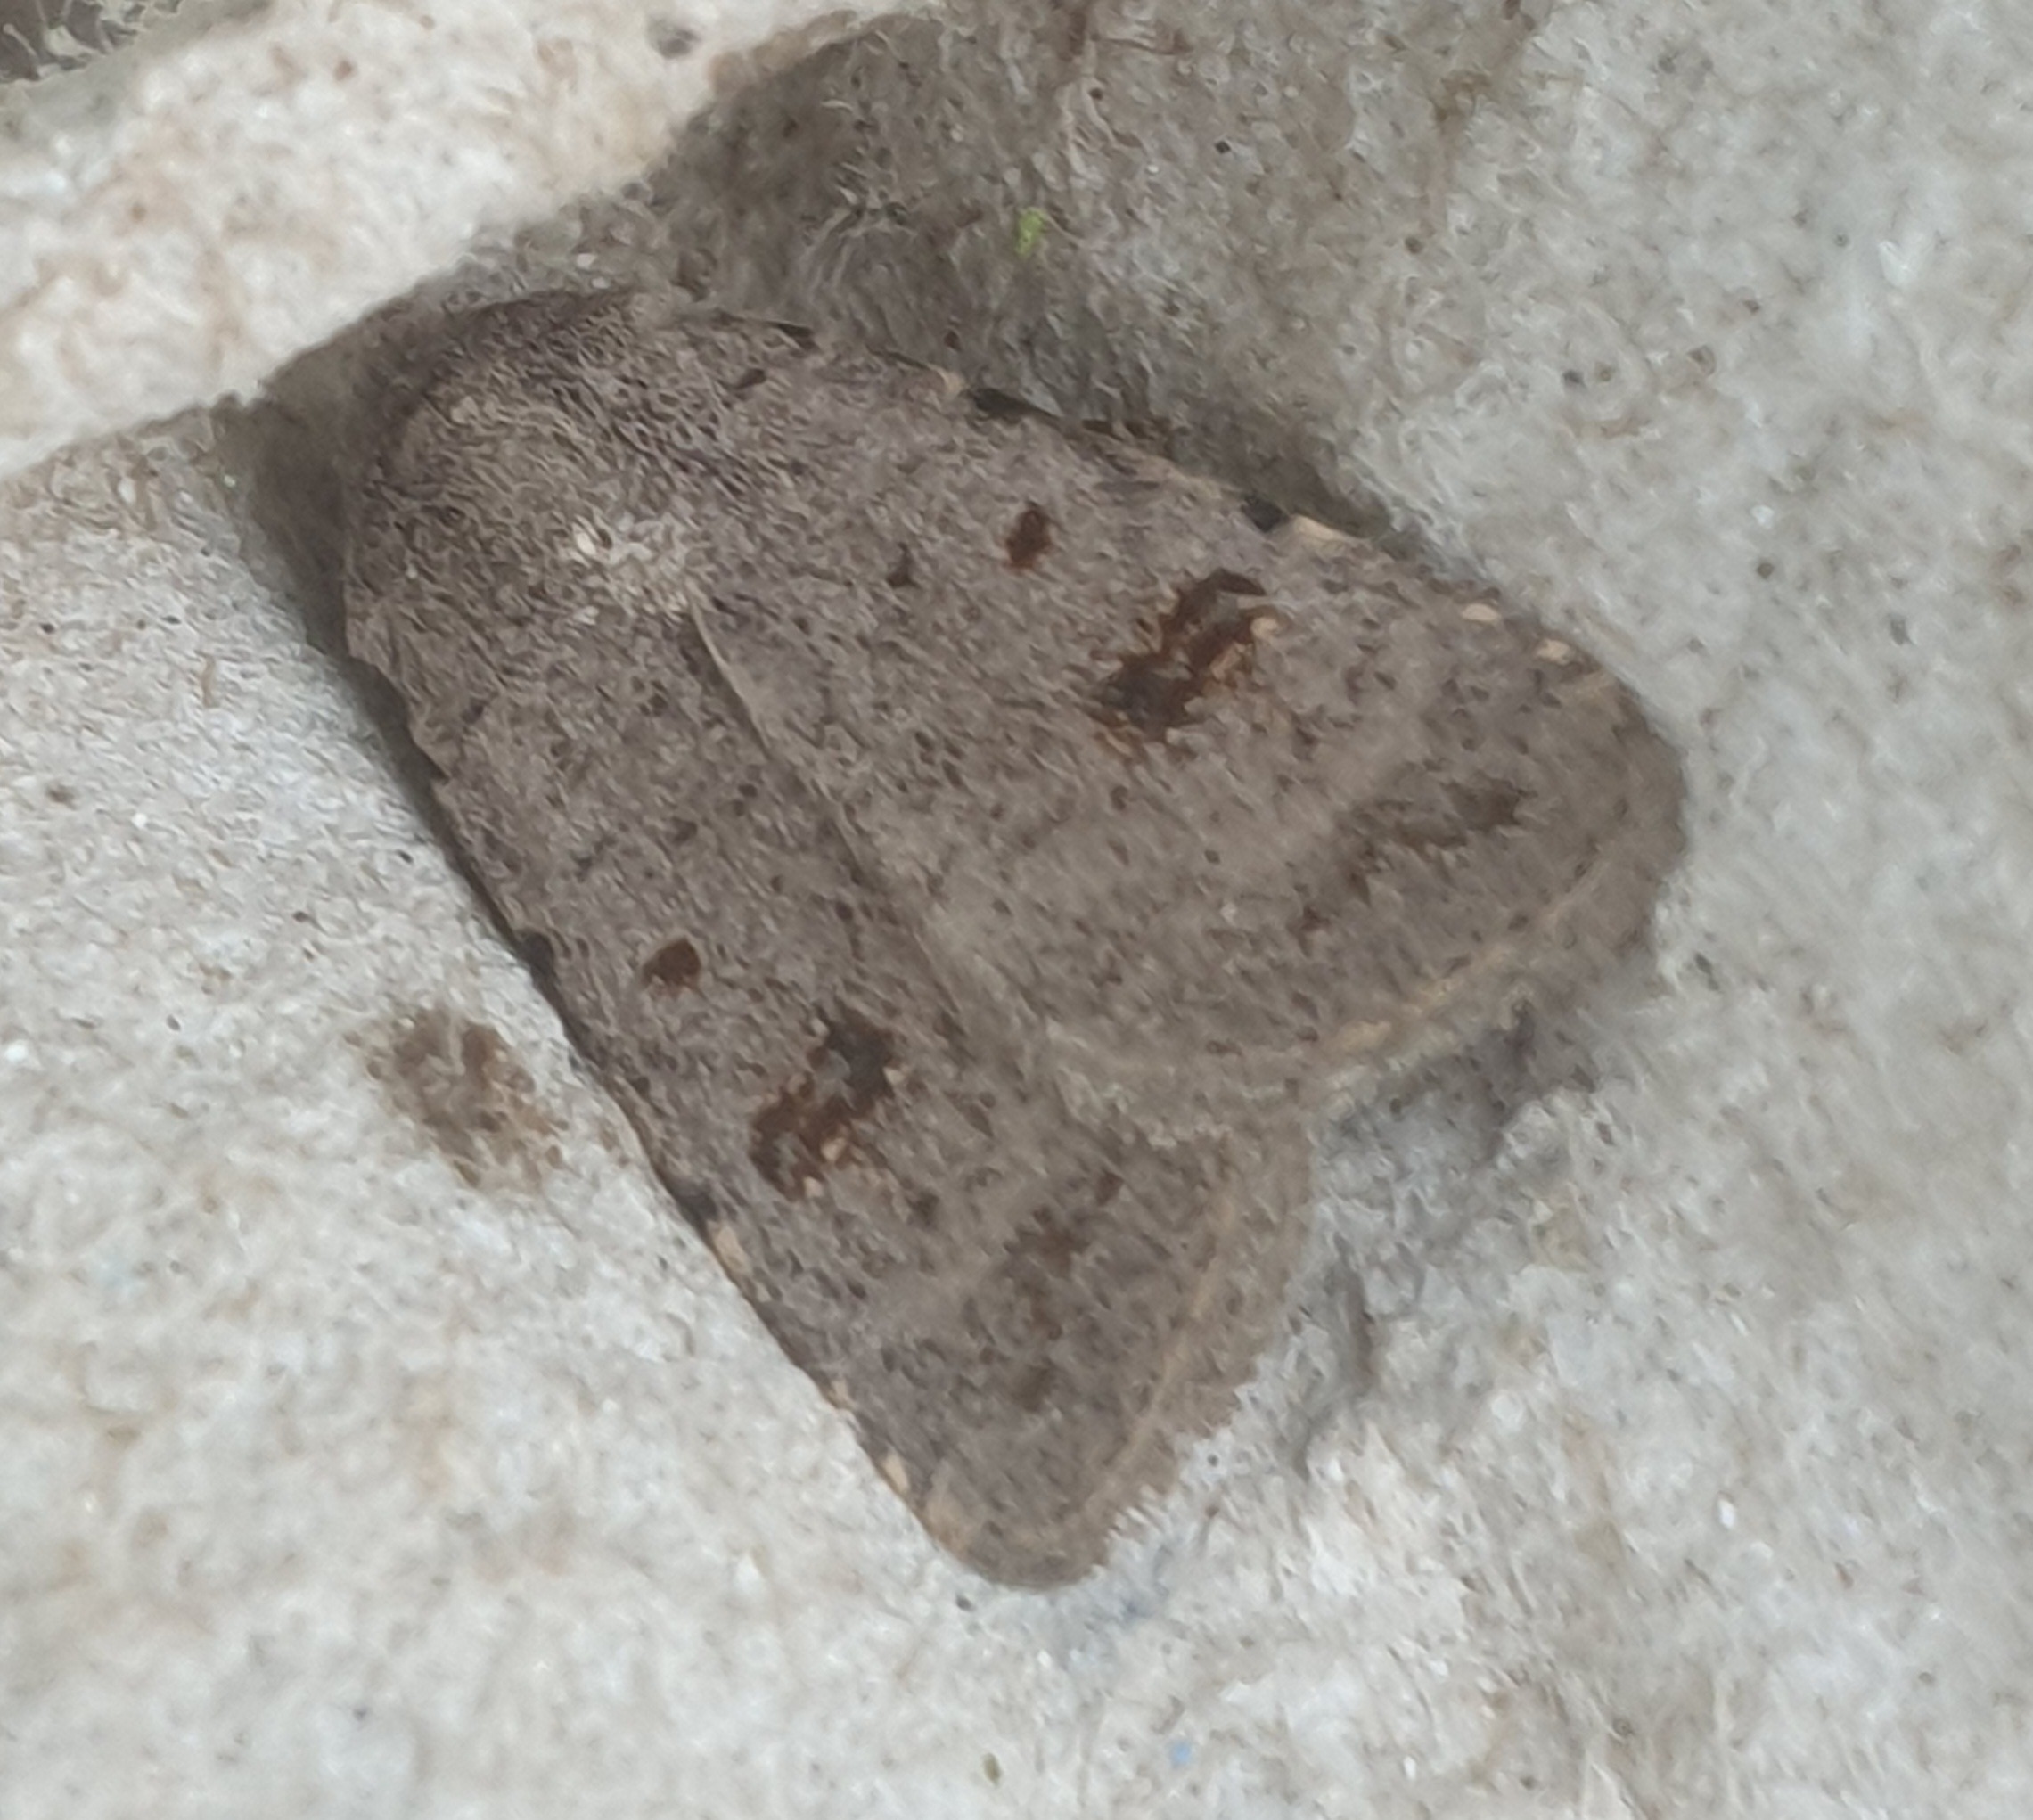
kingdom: Animalia
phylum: Arthropoda
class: Insecta
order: Lepidoptera
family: Noctuidae
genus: Caradrina
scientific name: Caradrina kadenii
